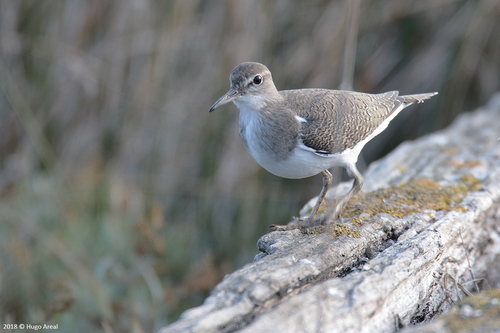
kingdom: Animalia
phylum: Chordata
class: Aves
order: Charadriiformes
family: Scolopacidae
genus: Actitis
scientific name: Actitis hypoleucos
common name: Common sandpiper
